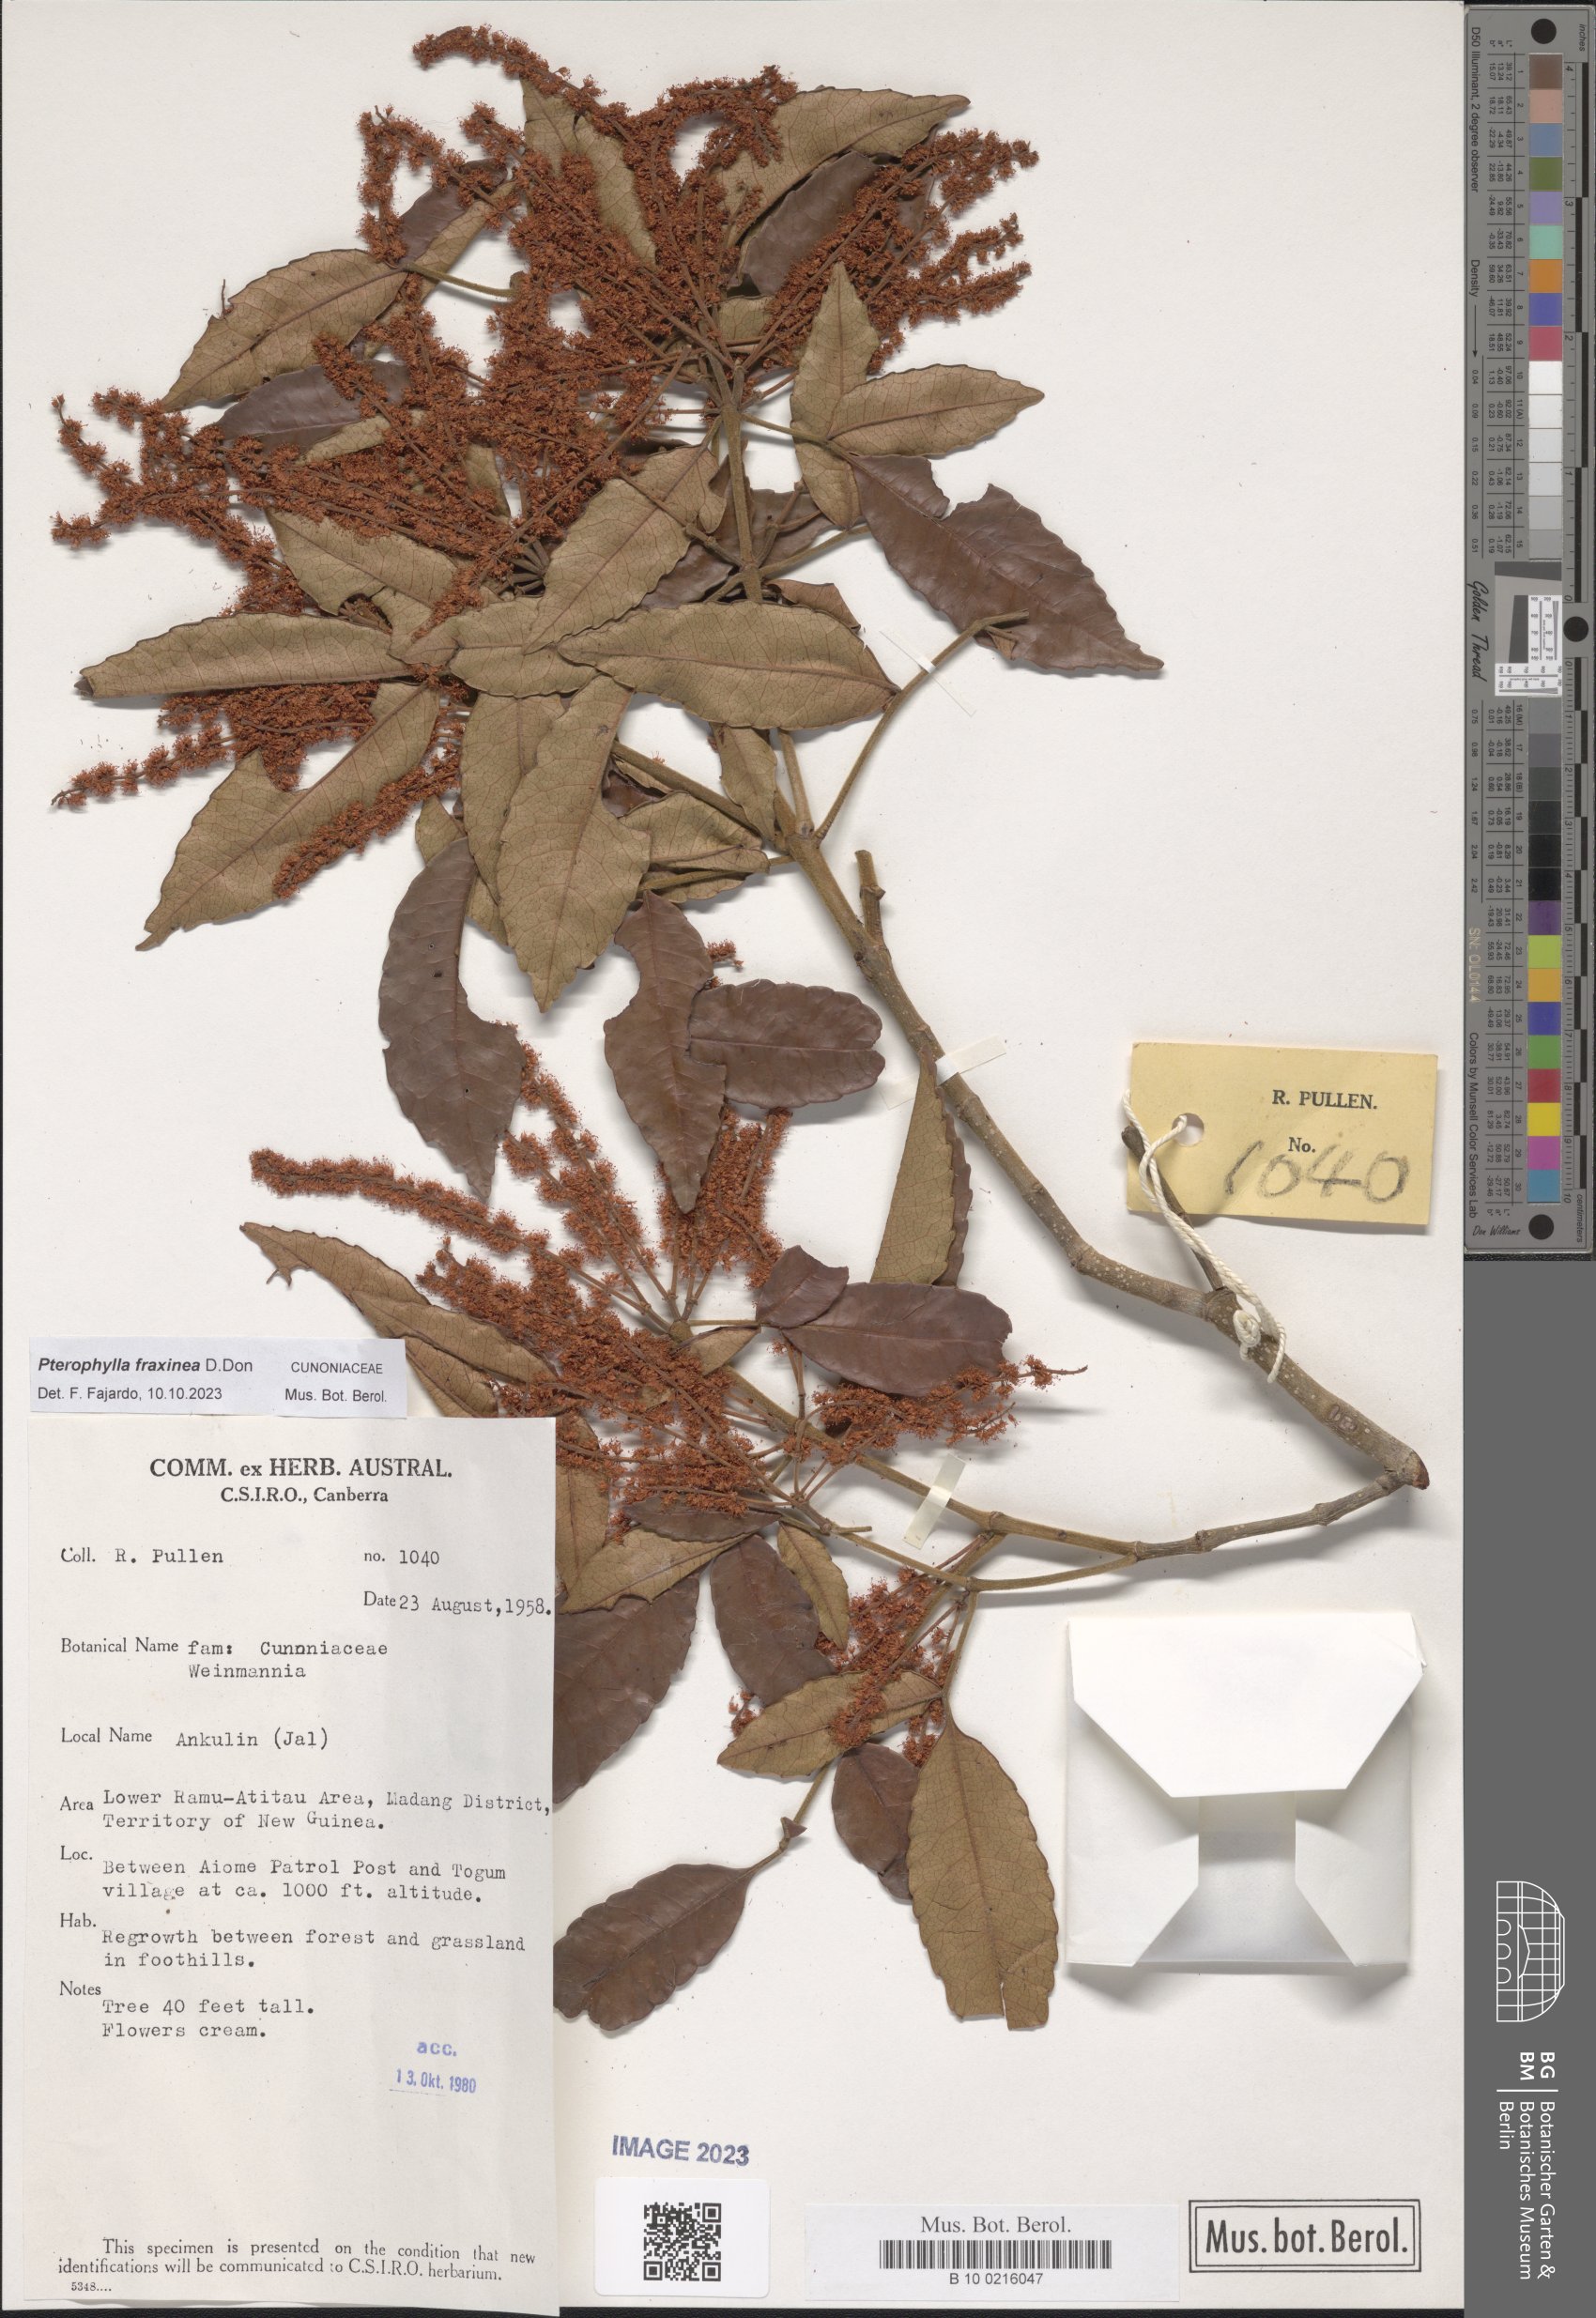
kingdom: Plantae
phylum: Tracheophyta
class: Magnoliopsida
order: Oxalidales
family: Cunoniaceae
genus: Pterophylla
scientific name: Pterophylla fraxinea
